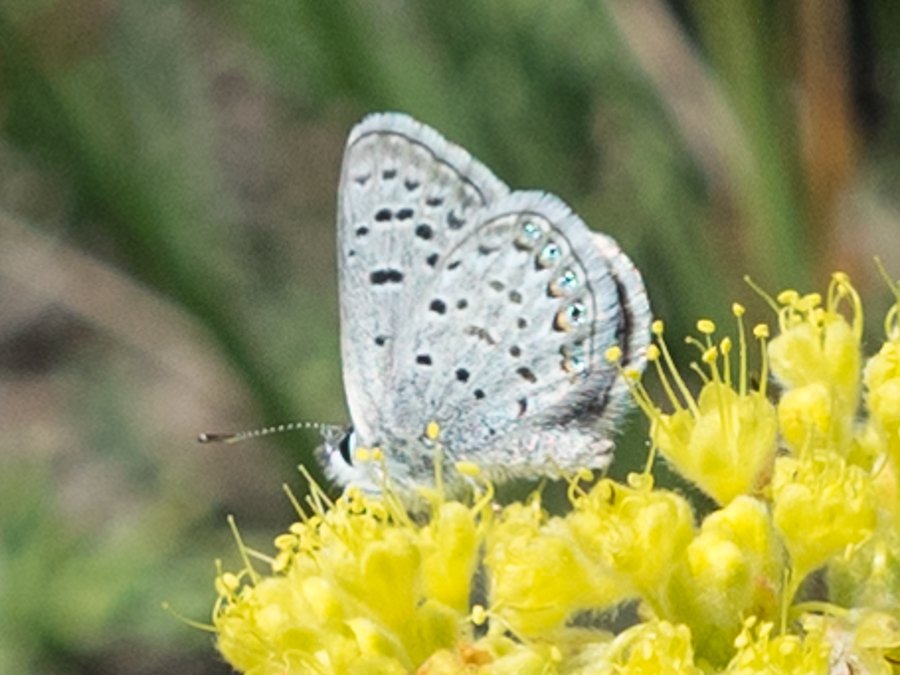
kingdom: Animalia
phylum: Arthropoda
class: Insecta
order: Lepidoptera
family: Lycaenidae
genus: Plebejus
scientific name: Plebejus shasta
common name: Shasta Blue
